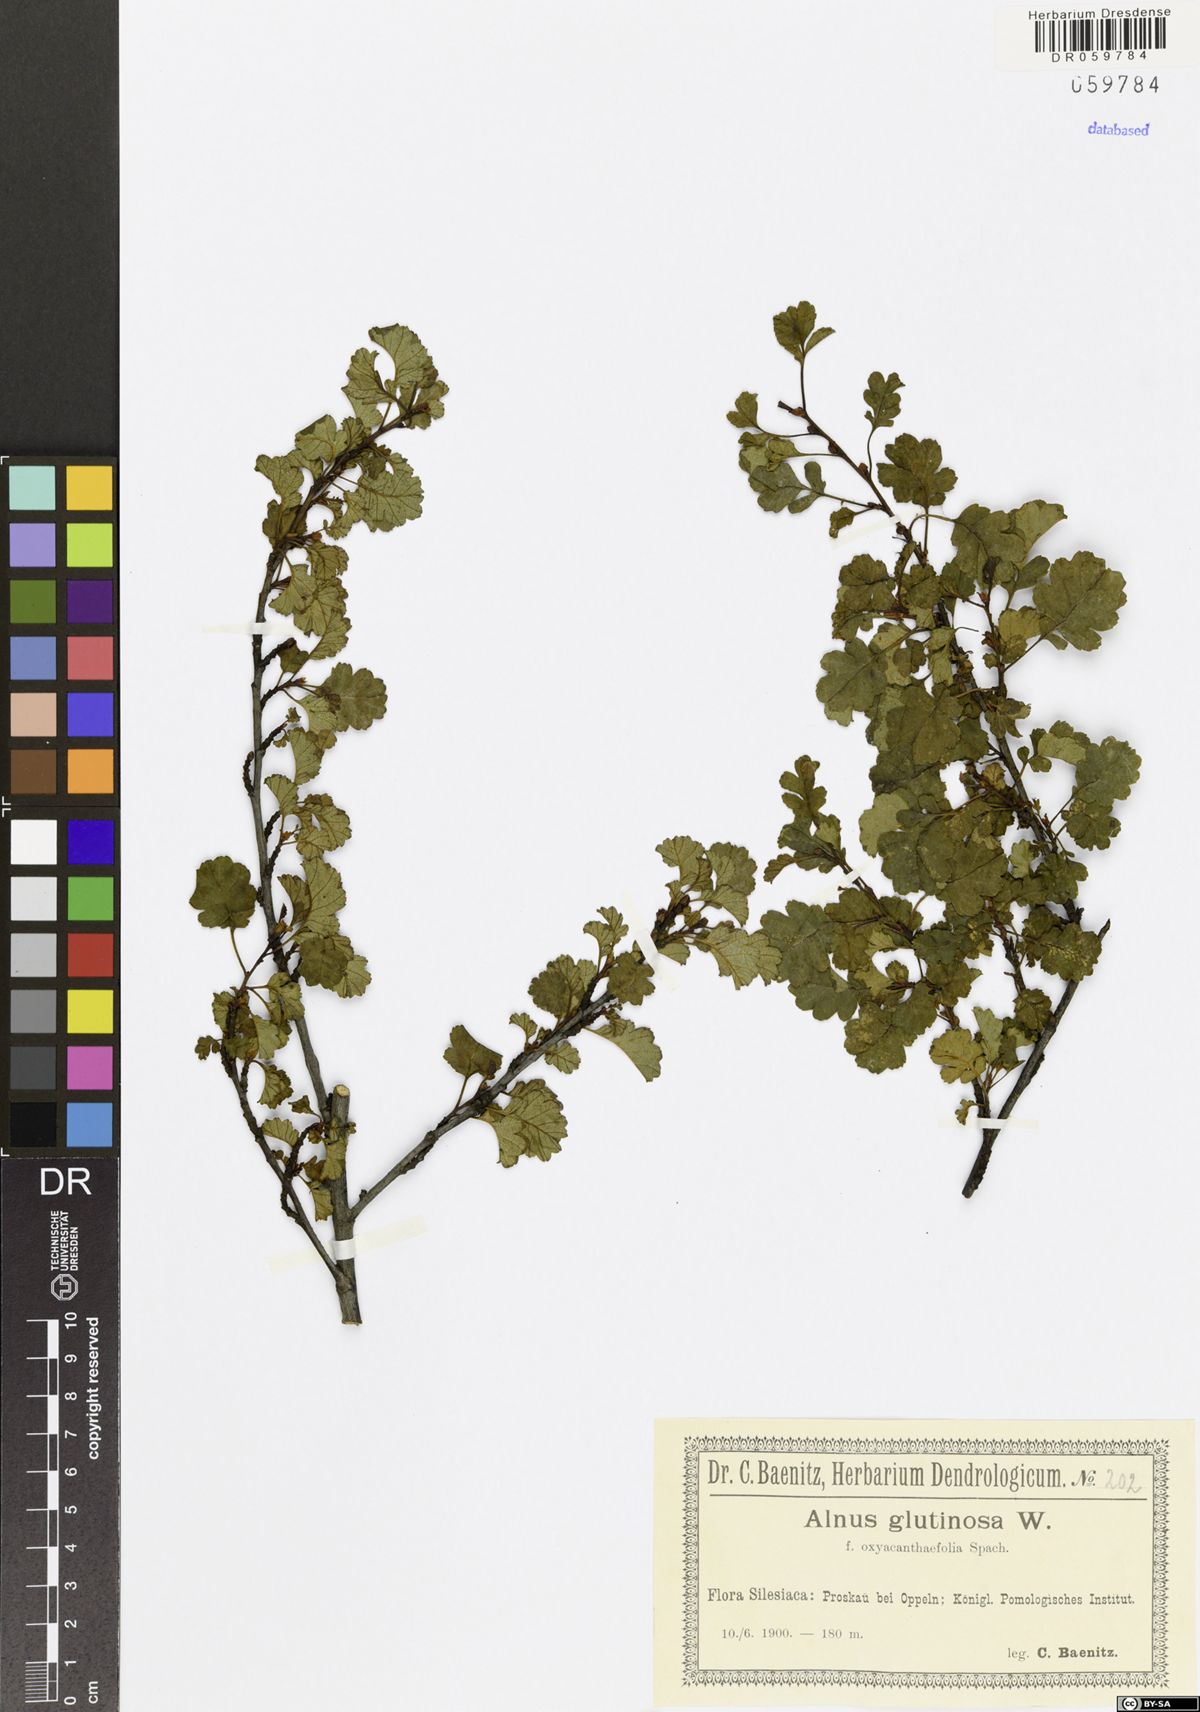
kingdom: Plantae
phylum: Tracheophyta
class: Magnoliopsida
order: Fagales
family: Betulaceae
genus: Alnus
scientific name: Alnus glutinosa
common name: Black alder
